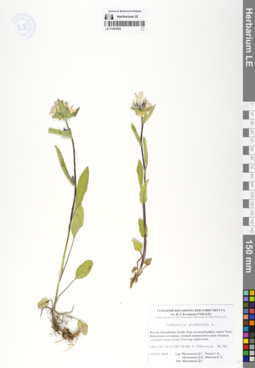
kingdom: Plantae
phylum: Tracheophyta
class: Magnoliopsida
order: Asterales
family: Campanulaceae
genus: Campanula
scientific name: Campanula glomerata
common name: Clustered bellflower
